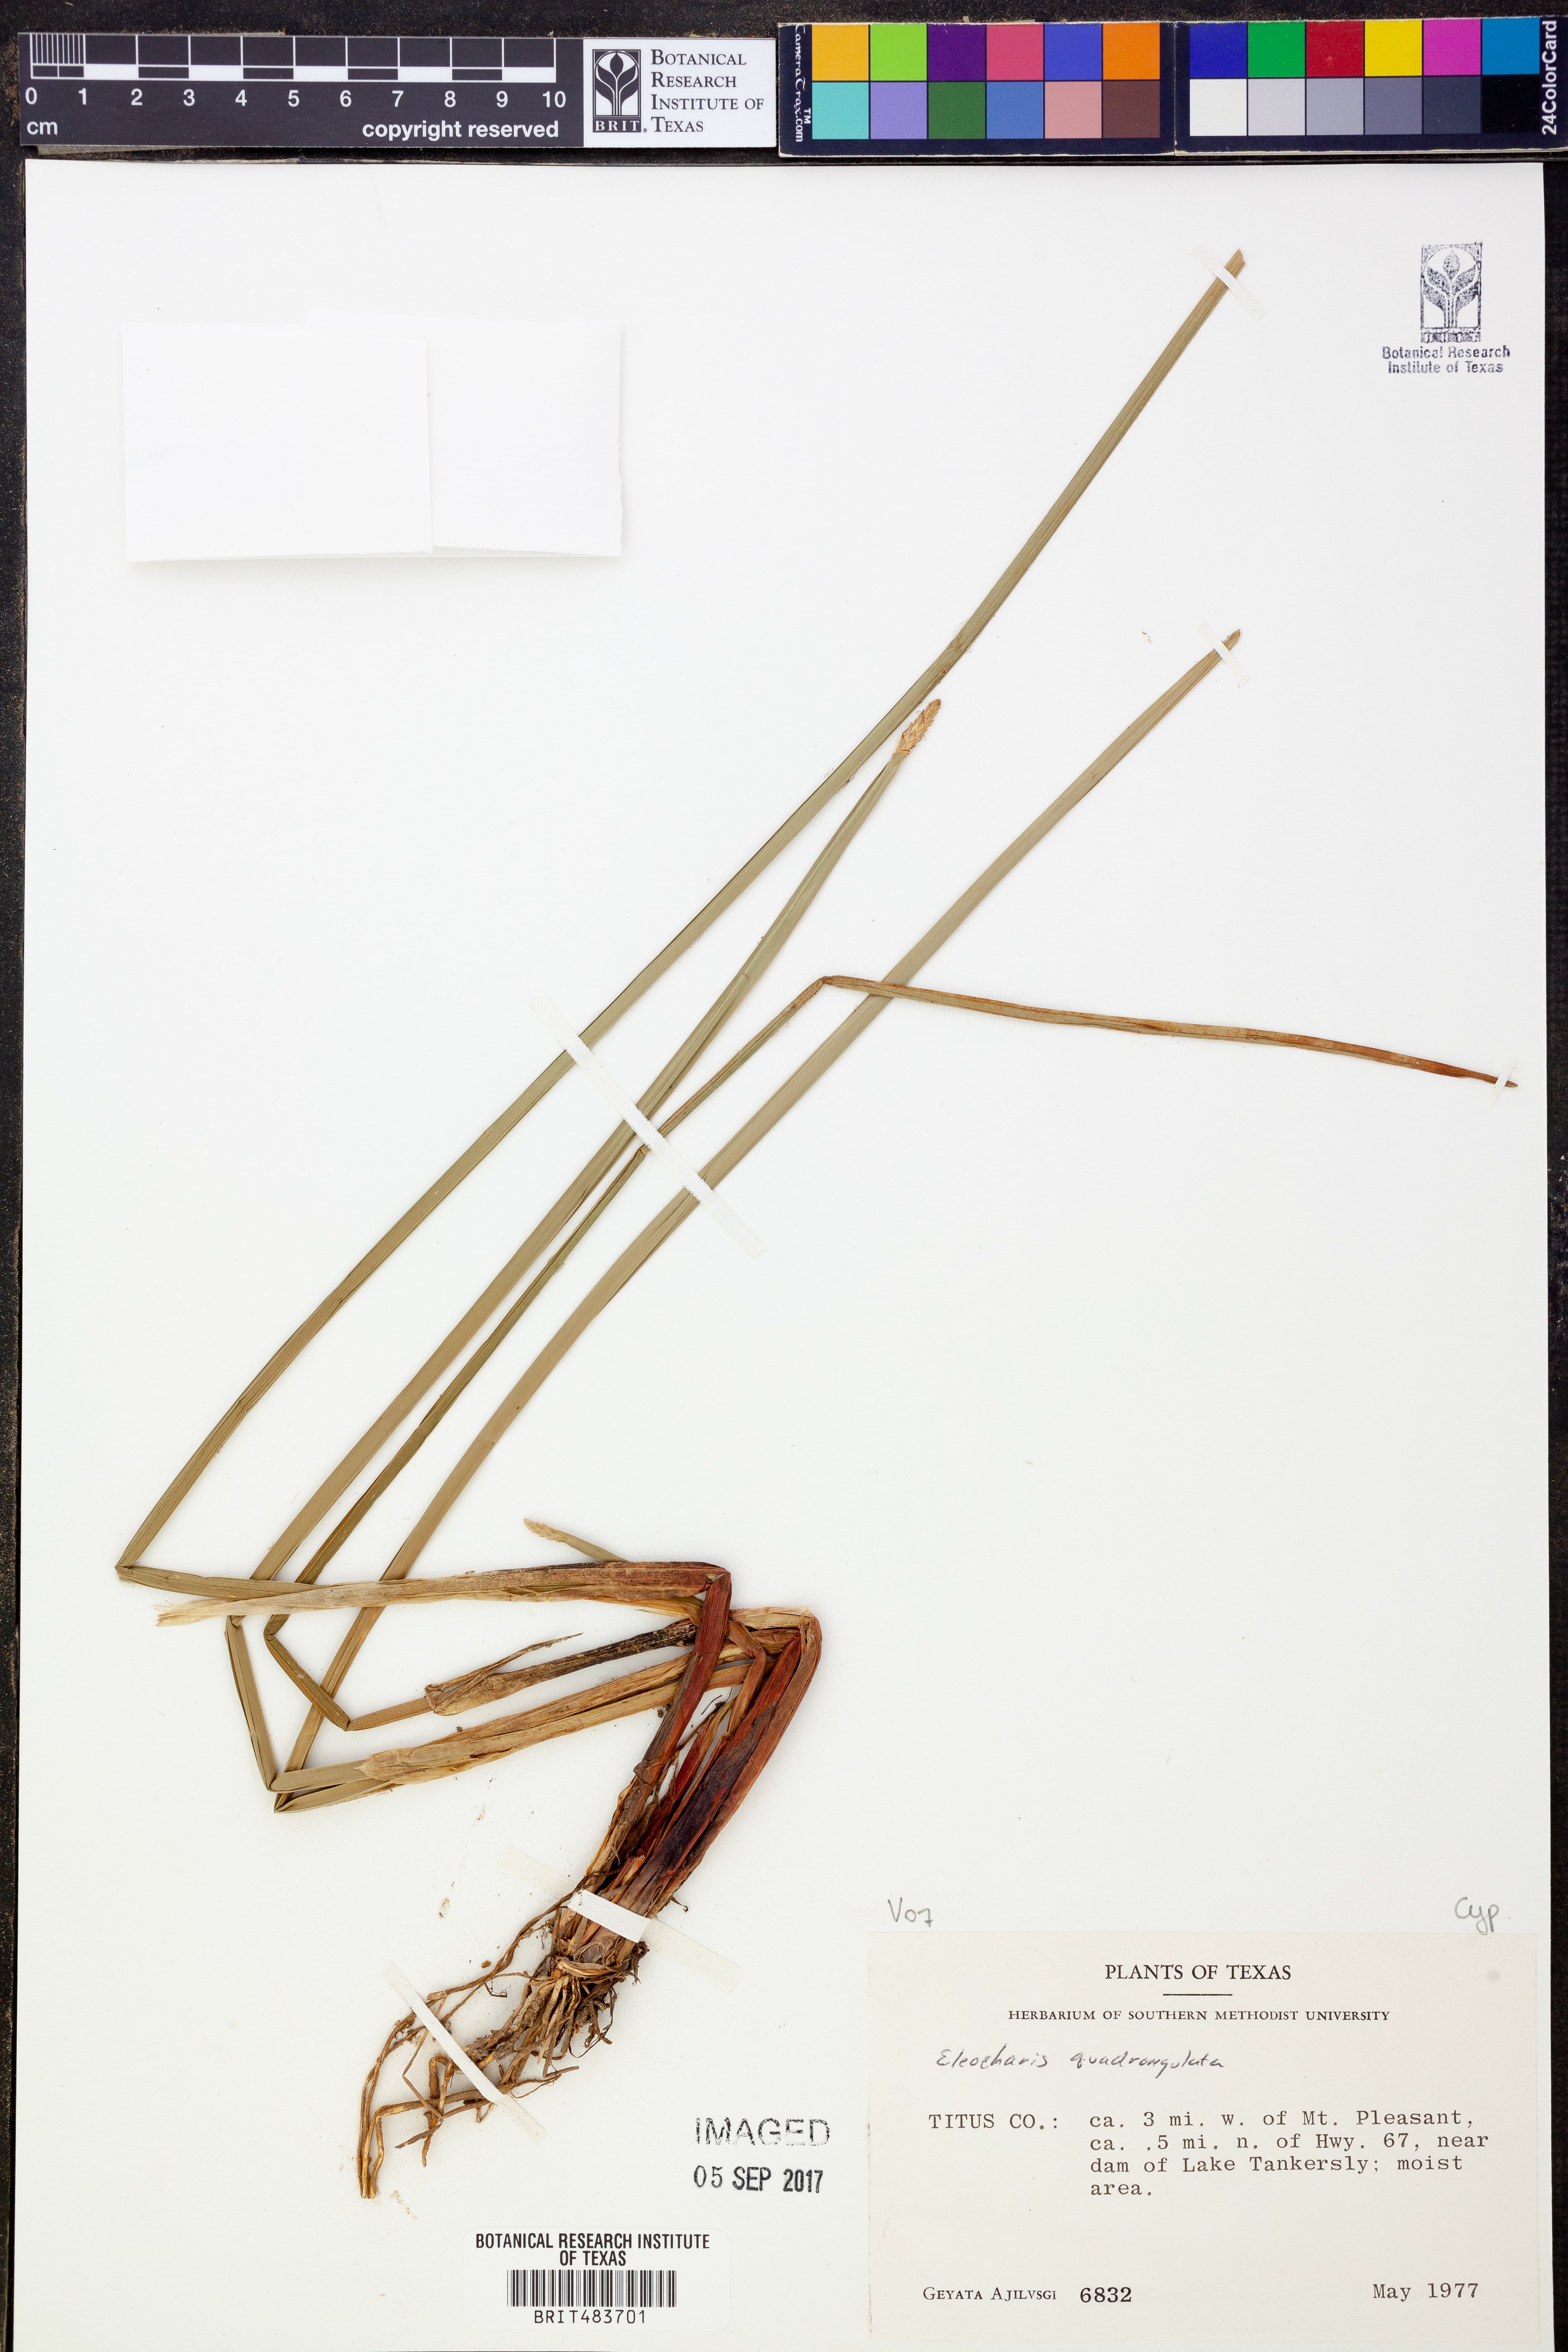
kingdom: Plantae
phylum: Tracheophyta
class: Liliopsida
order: Poales
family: Cyperaceae
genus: Eleocharis
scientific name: Eleocharis quadrangulata
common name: Square-stem spike-rush
